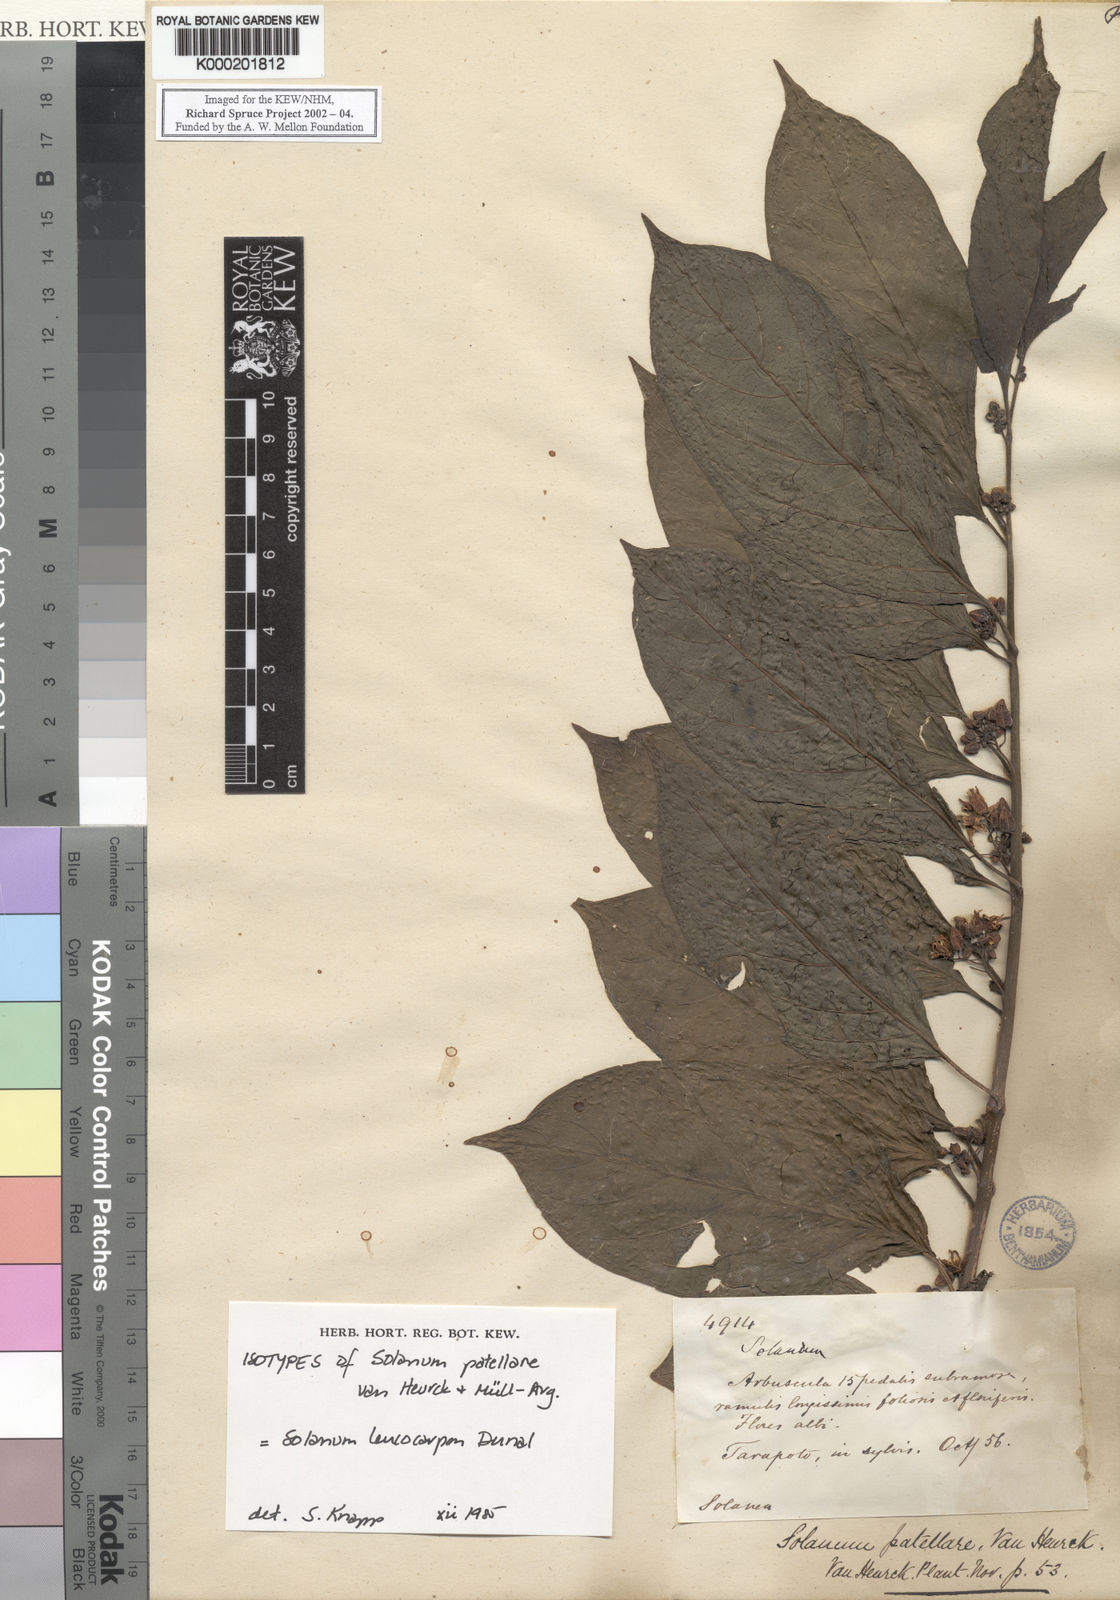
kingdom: Plantae
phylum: Tracheophyta
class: Magnoliopsida
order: Solanales
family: Solanaceae
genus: Solanum
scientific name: Solanum leucocarpon
